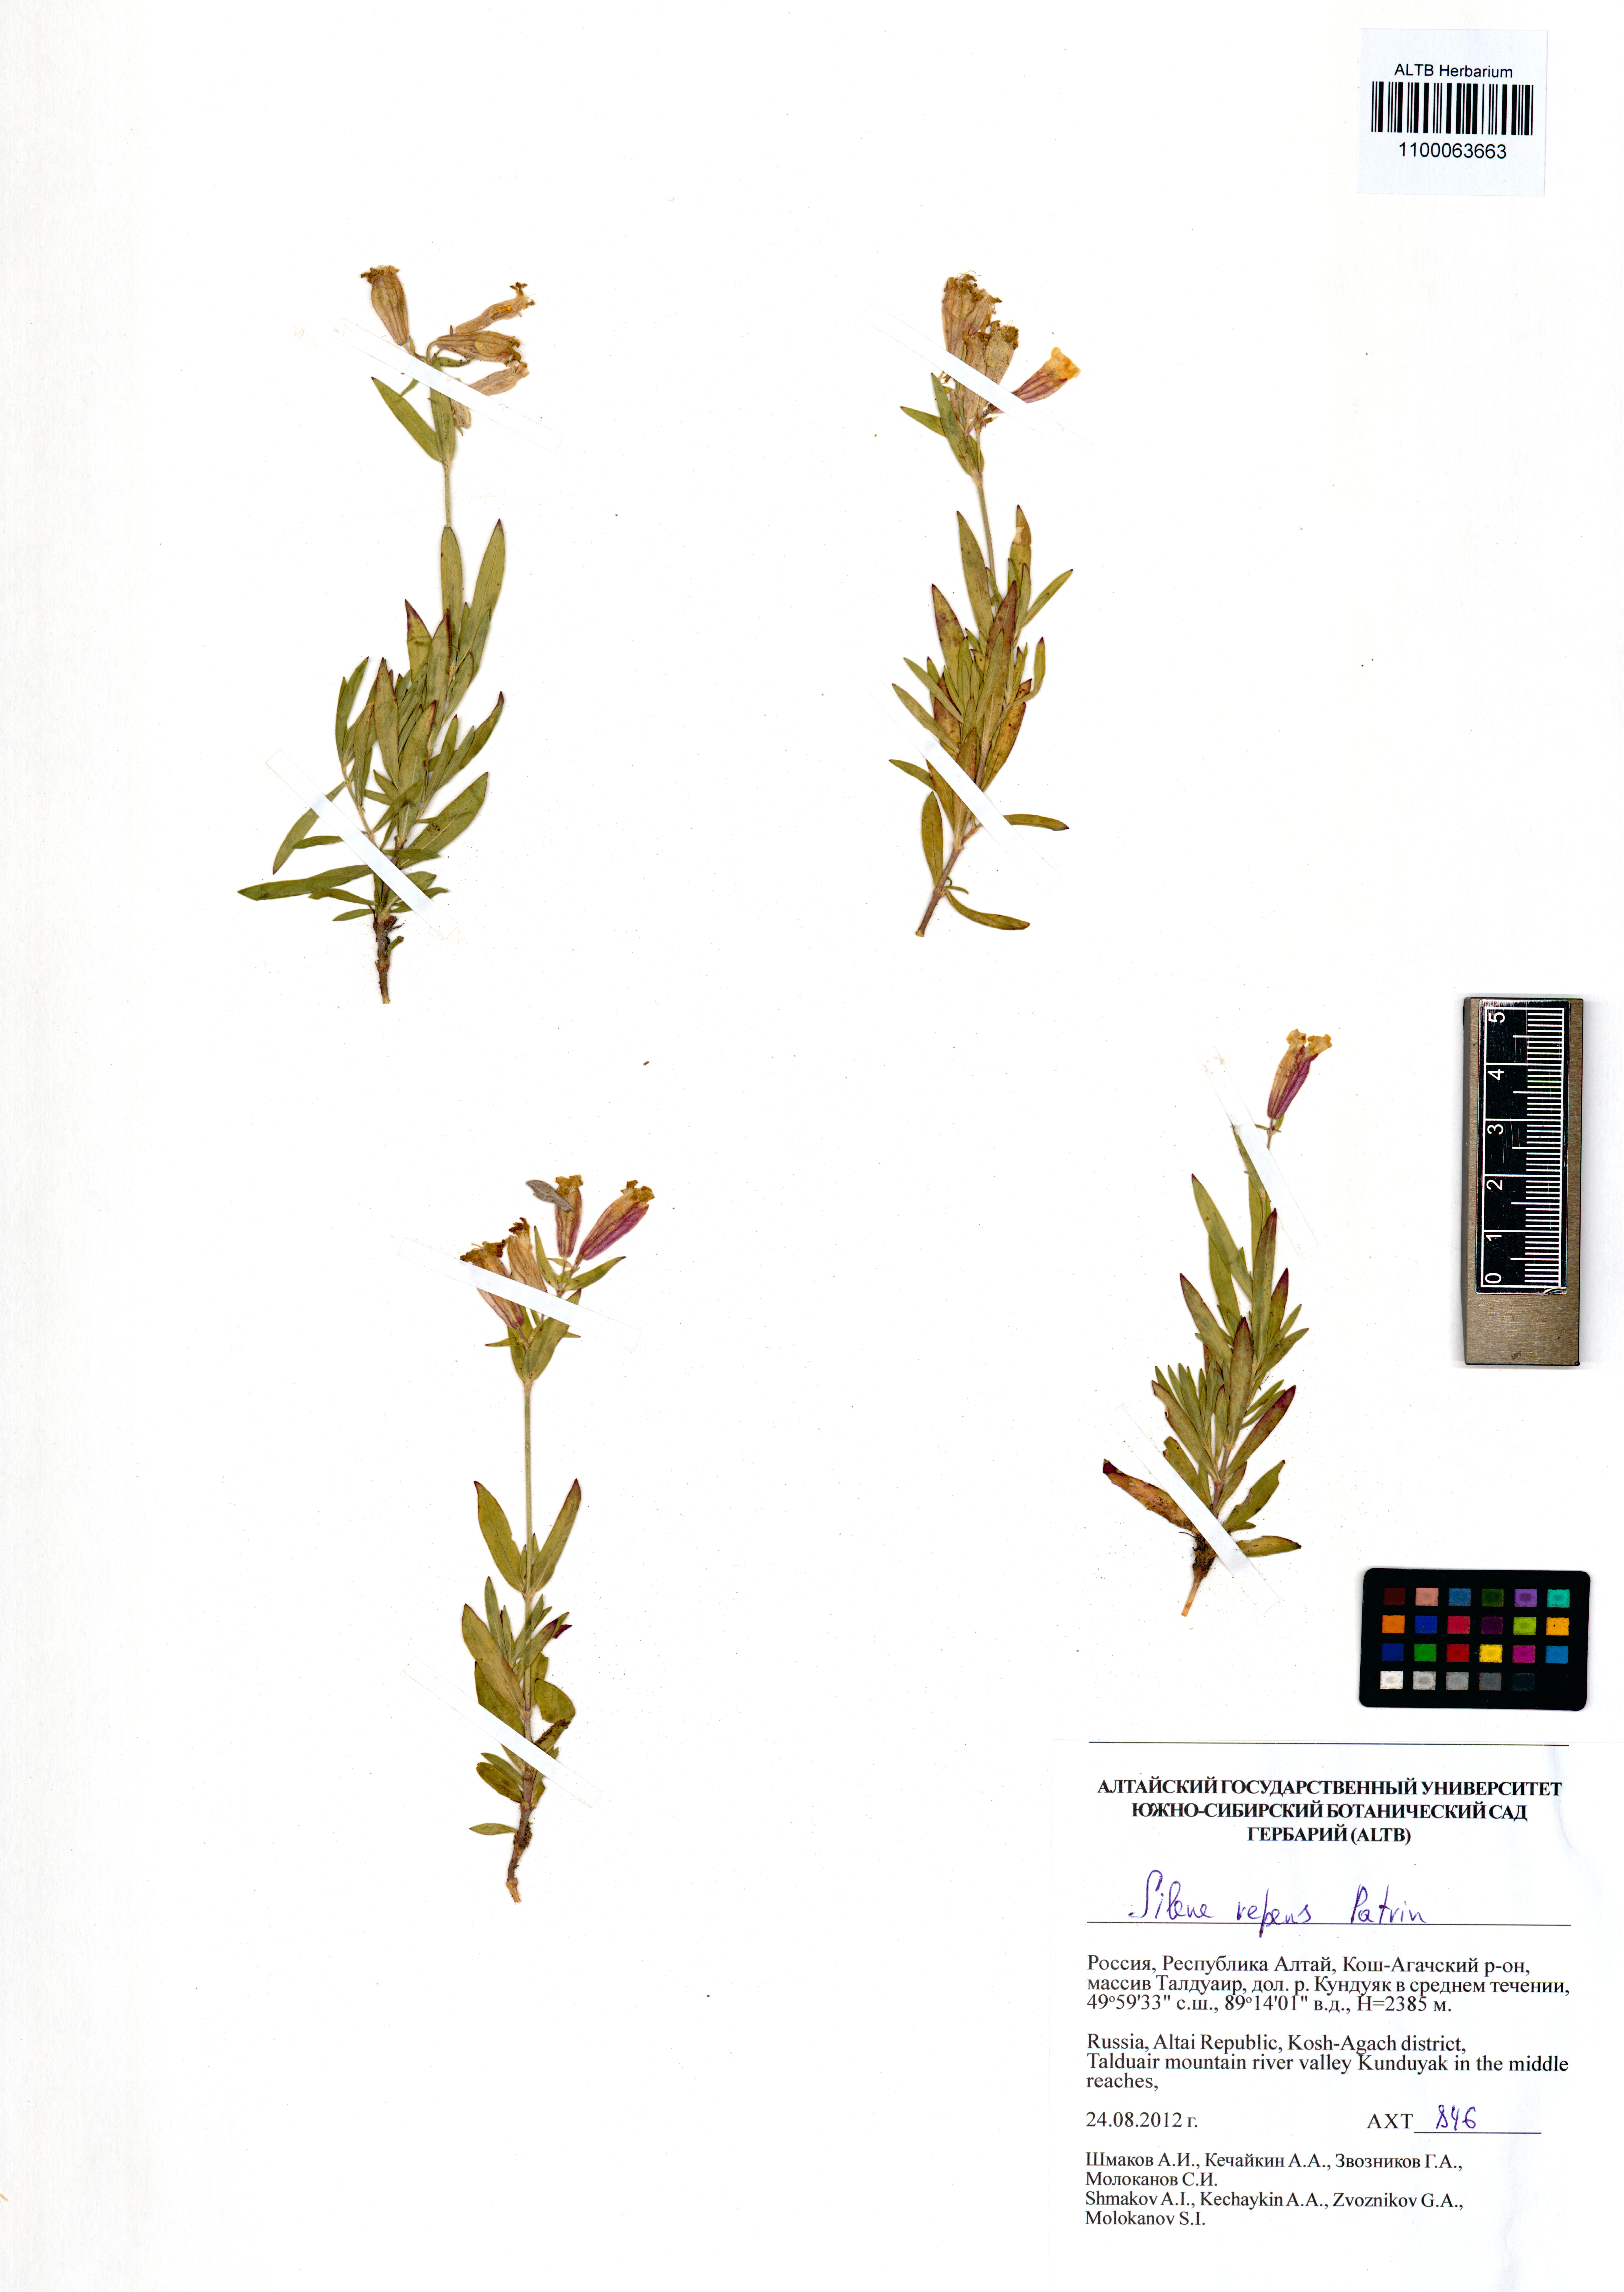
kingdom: Plantae
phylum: Tracheophyta
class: Magnoliopsida
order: Caryophyllales
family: Caryophyllaceae
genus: Silene
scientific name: Silene repens
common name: Pink campion
